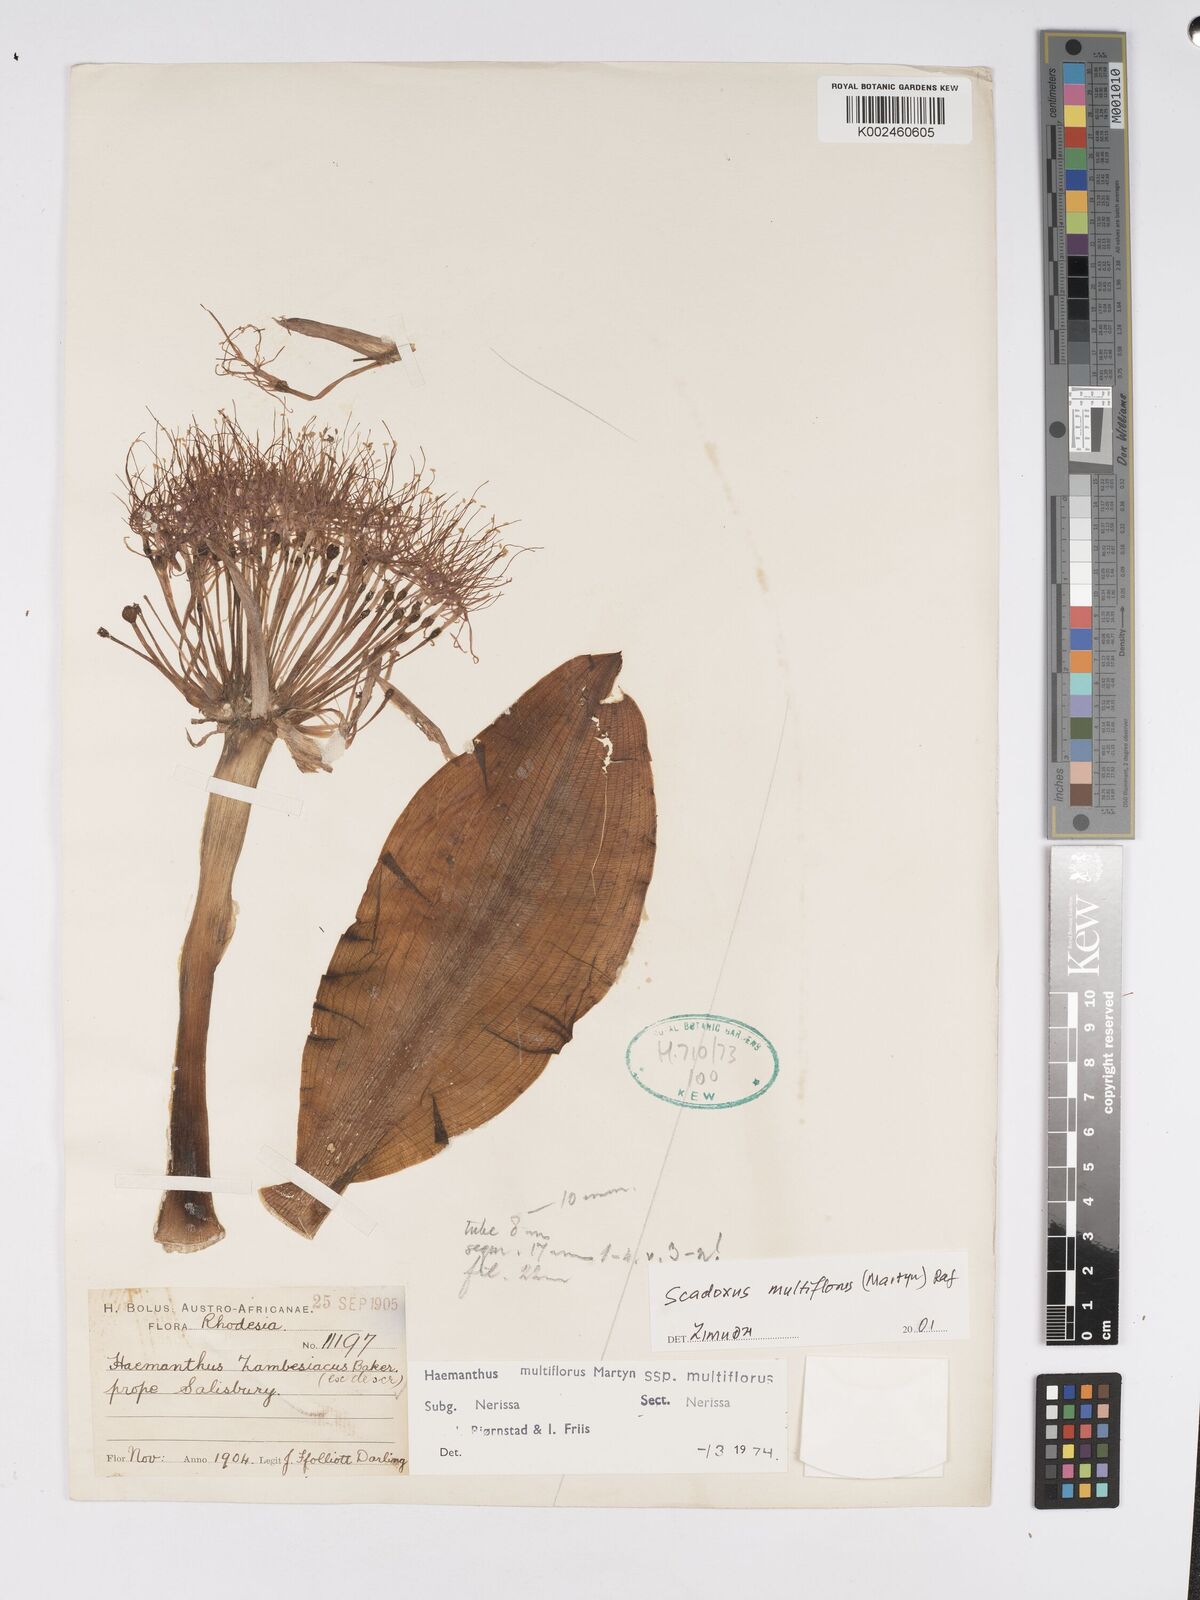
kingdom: Plantae
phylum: Tracheophyta
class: Liliopsida
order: Asparagales
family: Amaryllidaceae
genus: Scadoxus
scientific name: Scadoxus multiflorus
